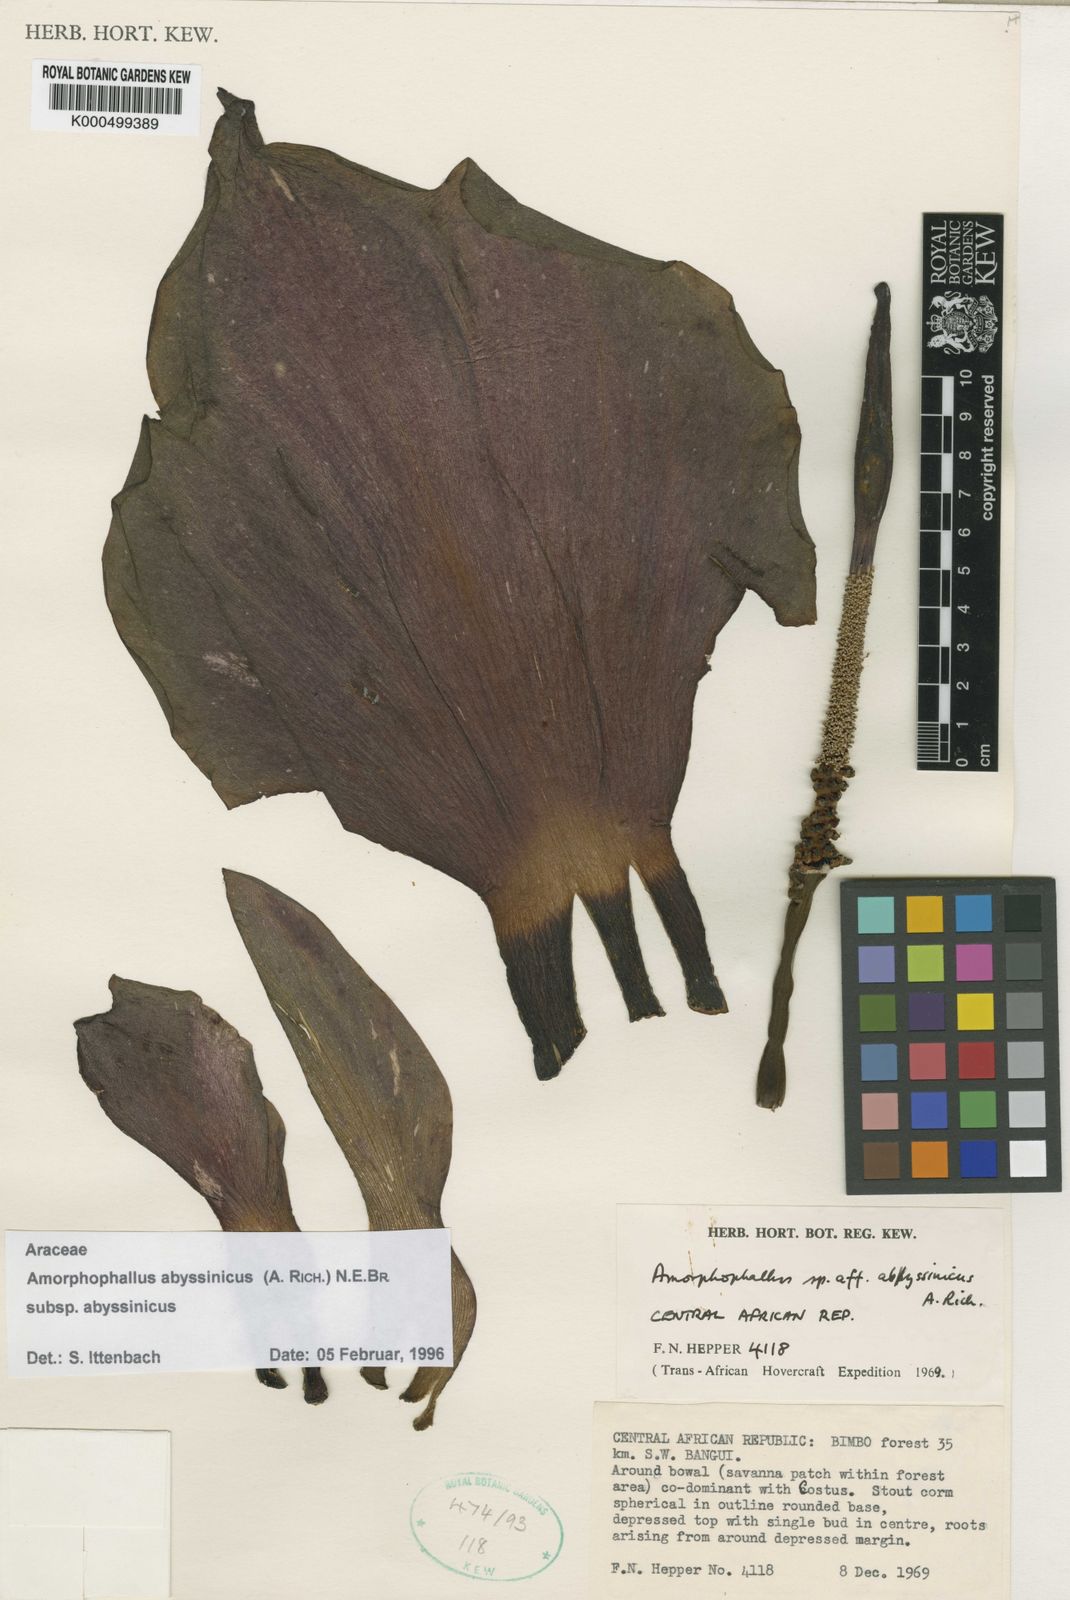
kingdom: Plantae
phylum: Tracheophyta
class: Liliopsida
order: Alismatales
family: Araceae
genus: Amorphophallus
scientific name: Amorphophallus abyssinicus
